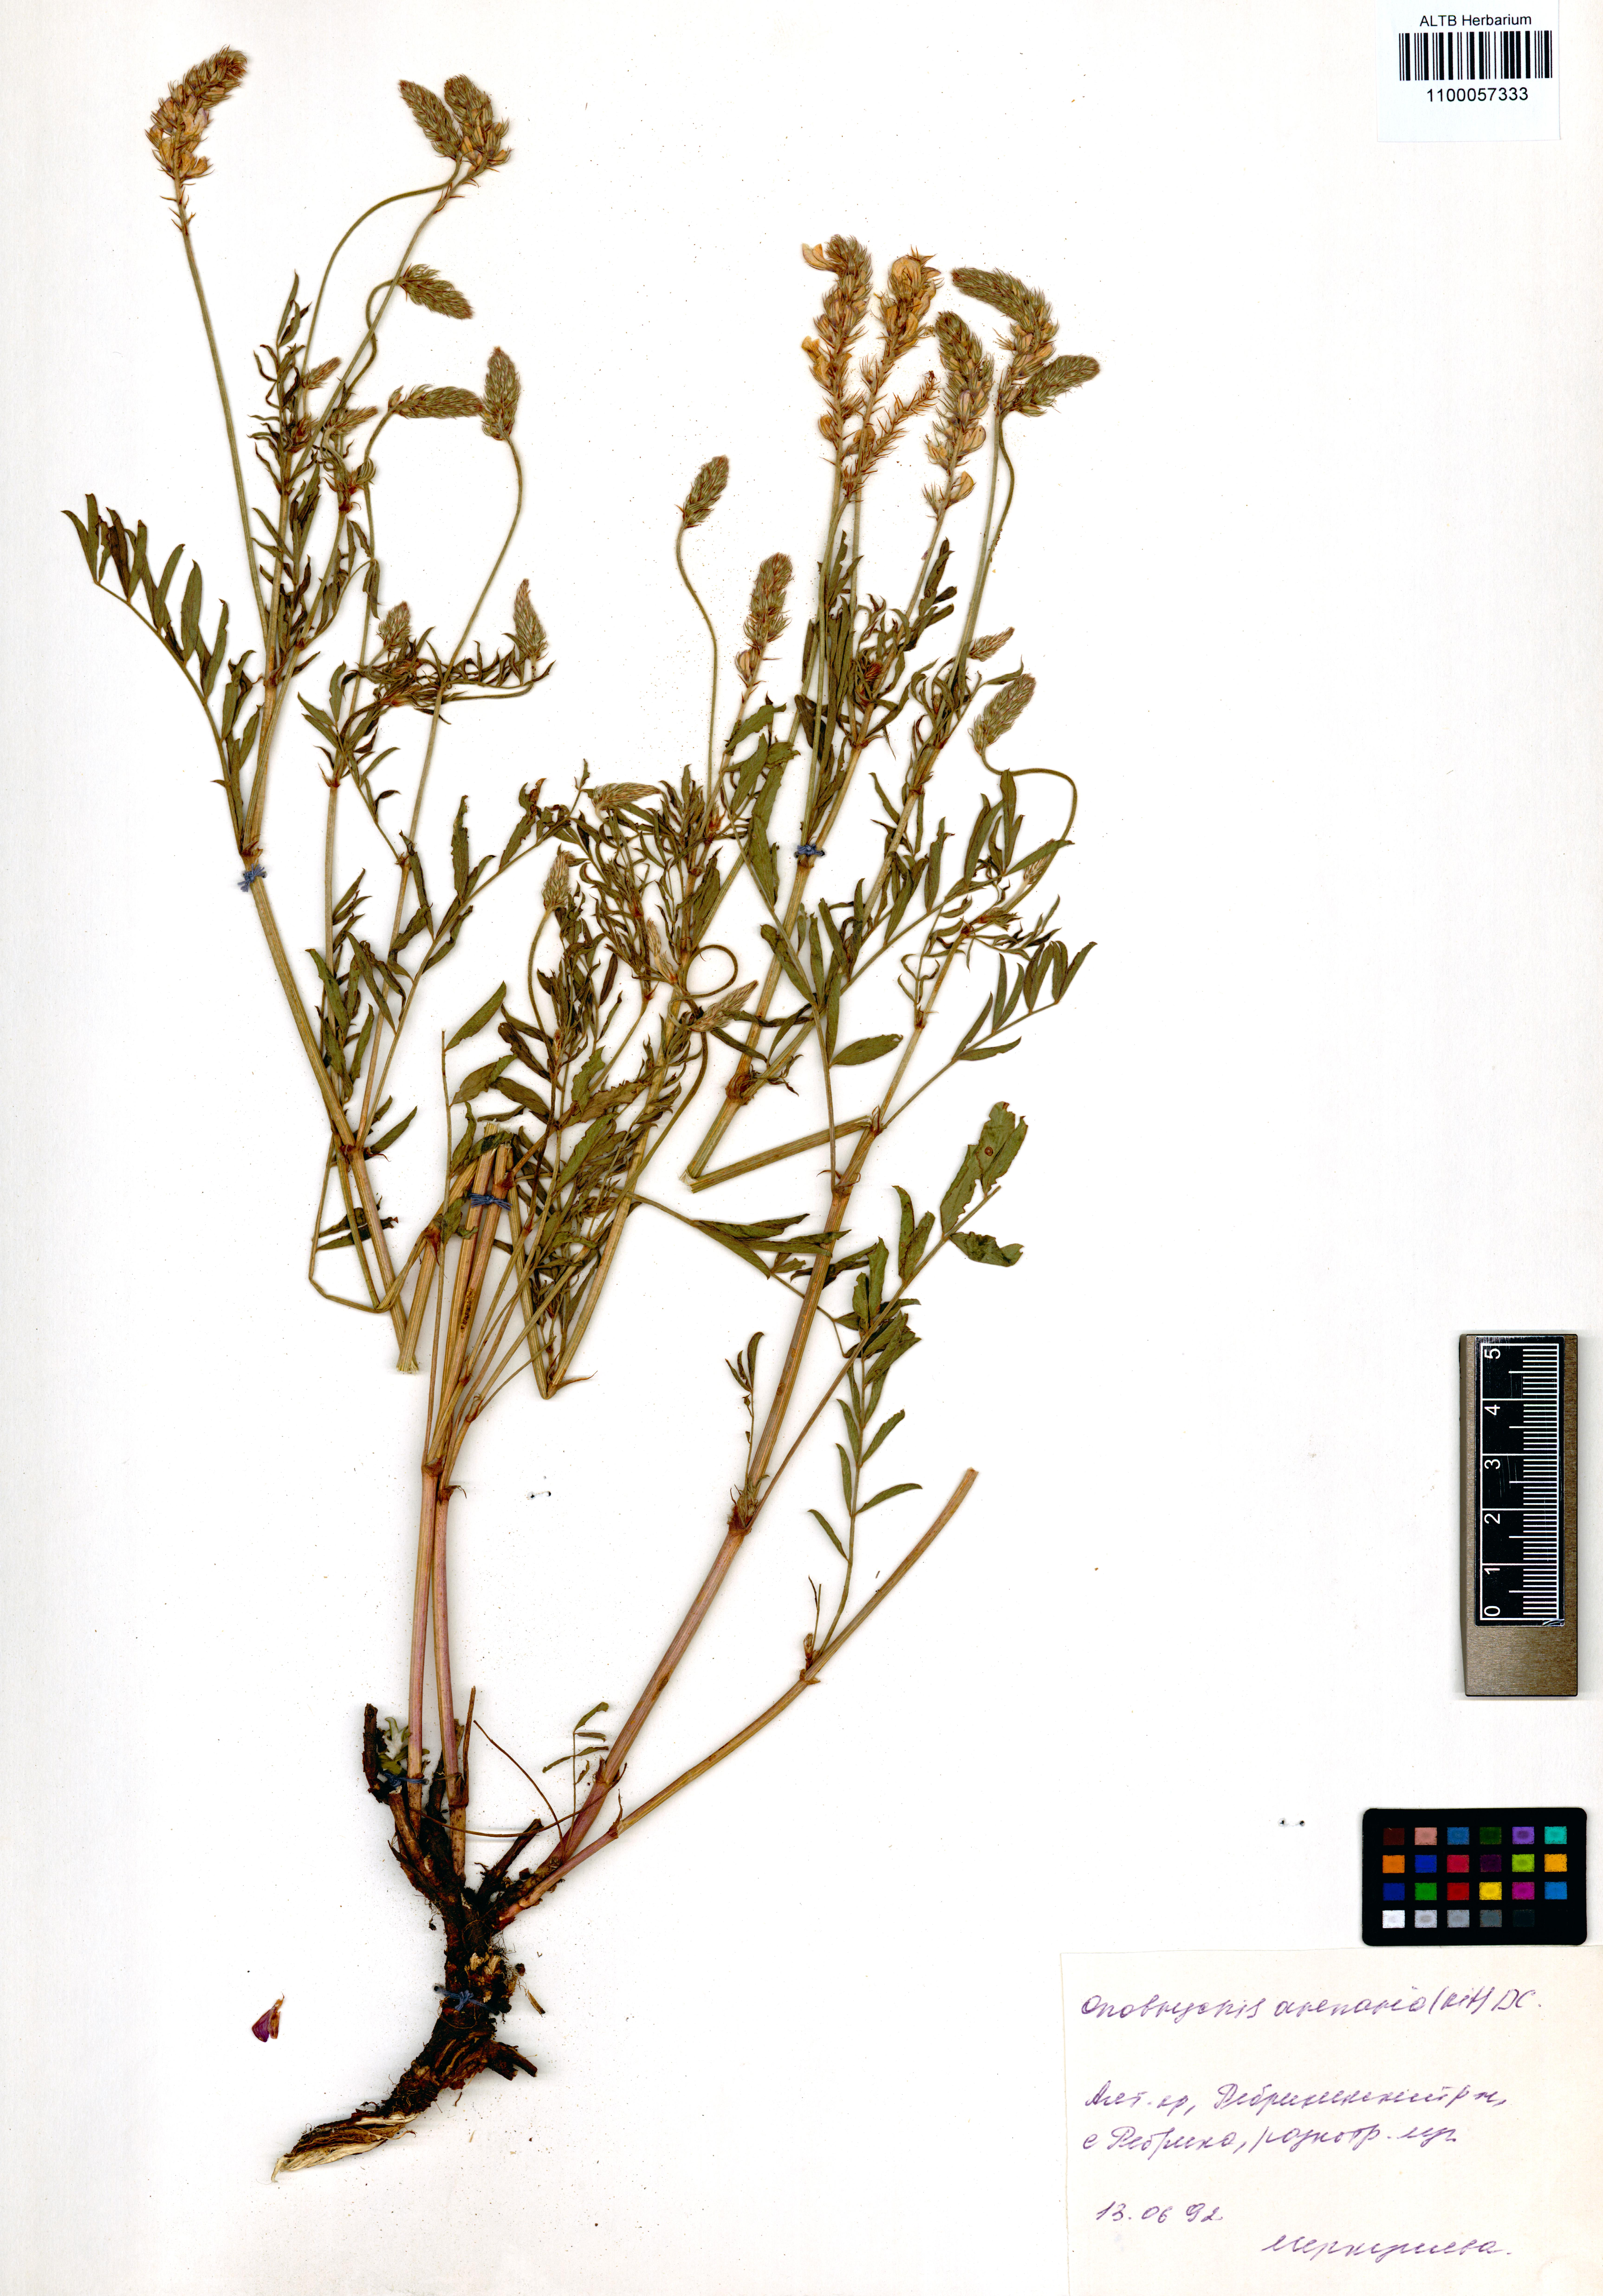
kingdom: Plantae
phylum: Tracheophyta
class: Magnoliopsida
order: Fabales
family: Fabaceae
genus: Onobrychis
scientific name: Onobrychis arenaria
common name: Sand esparcet
